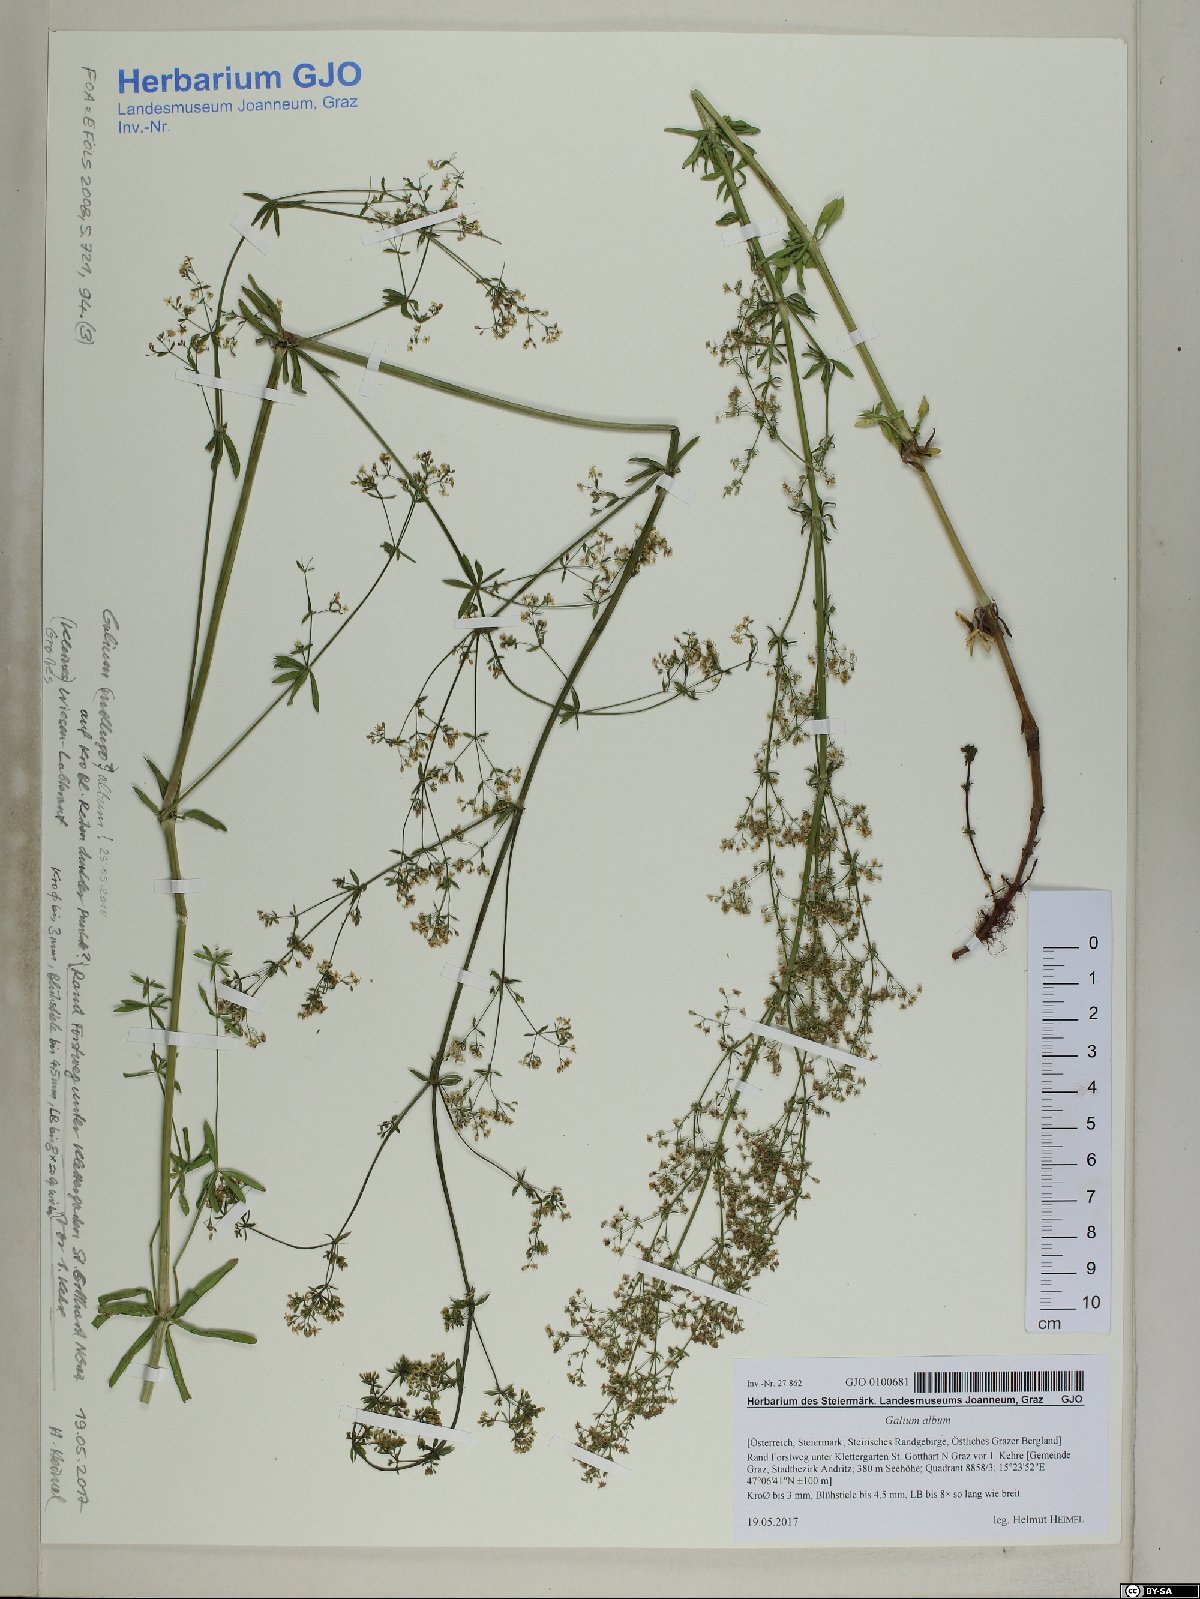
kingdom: Plantae
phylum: Tracheophyta
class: Magnoliopsida
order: Gentianales
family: Rubiaceae
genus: Galium
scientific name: Galium album
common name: White bedstraw
